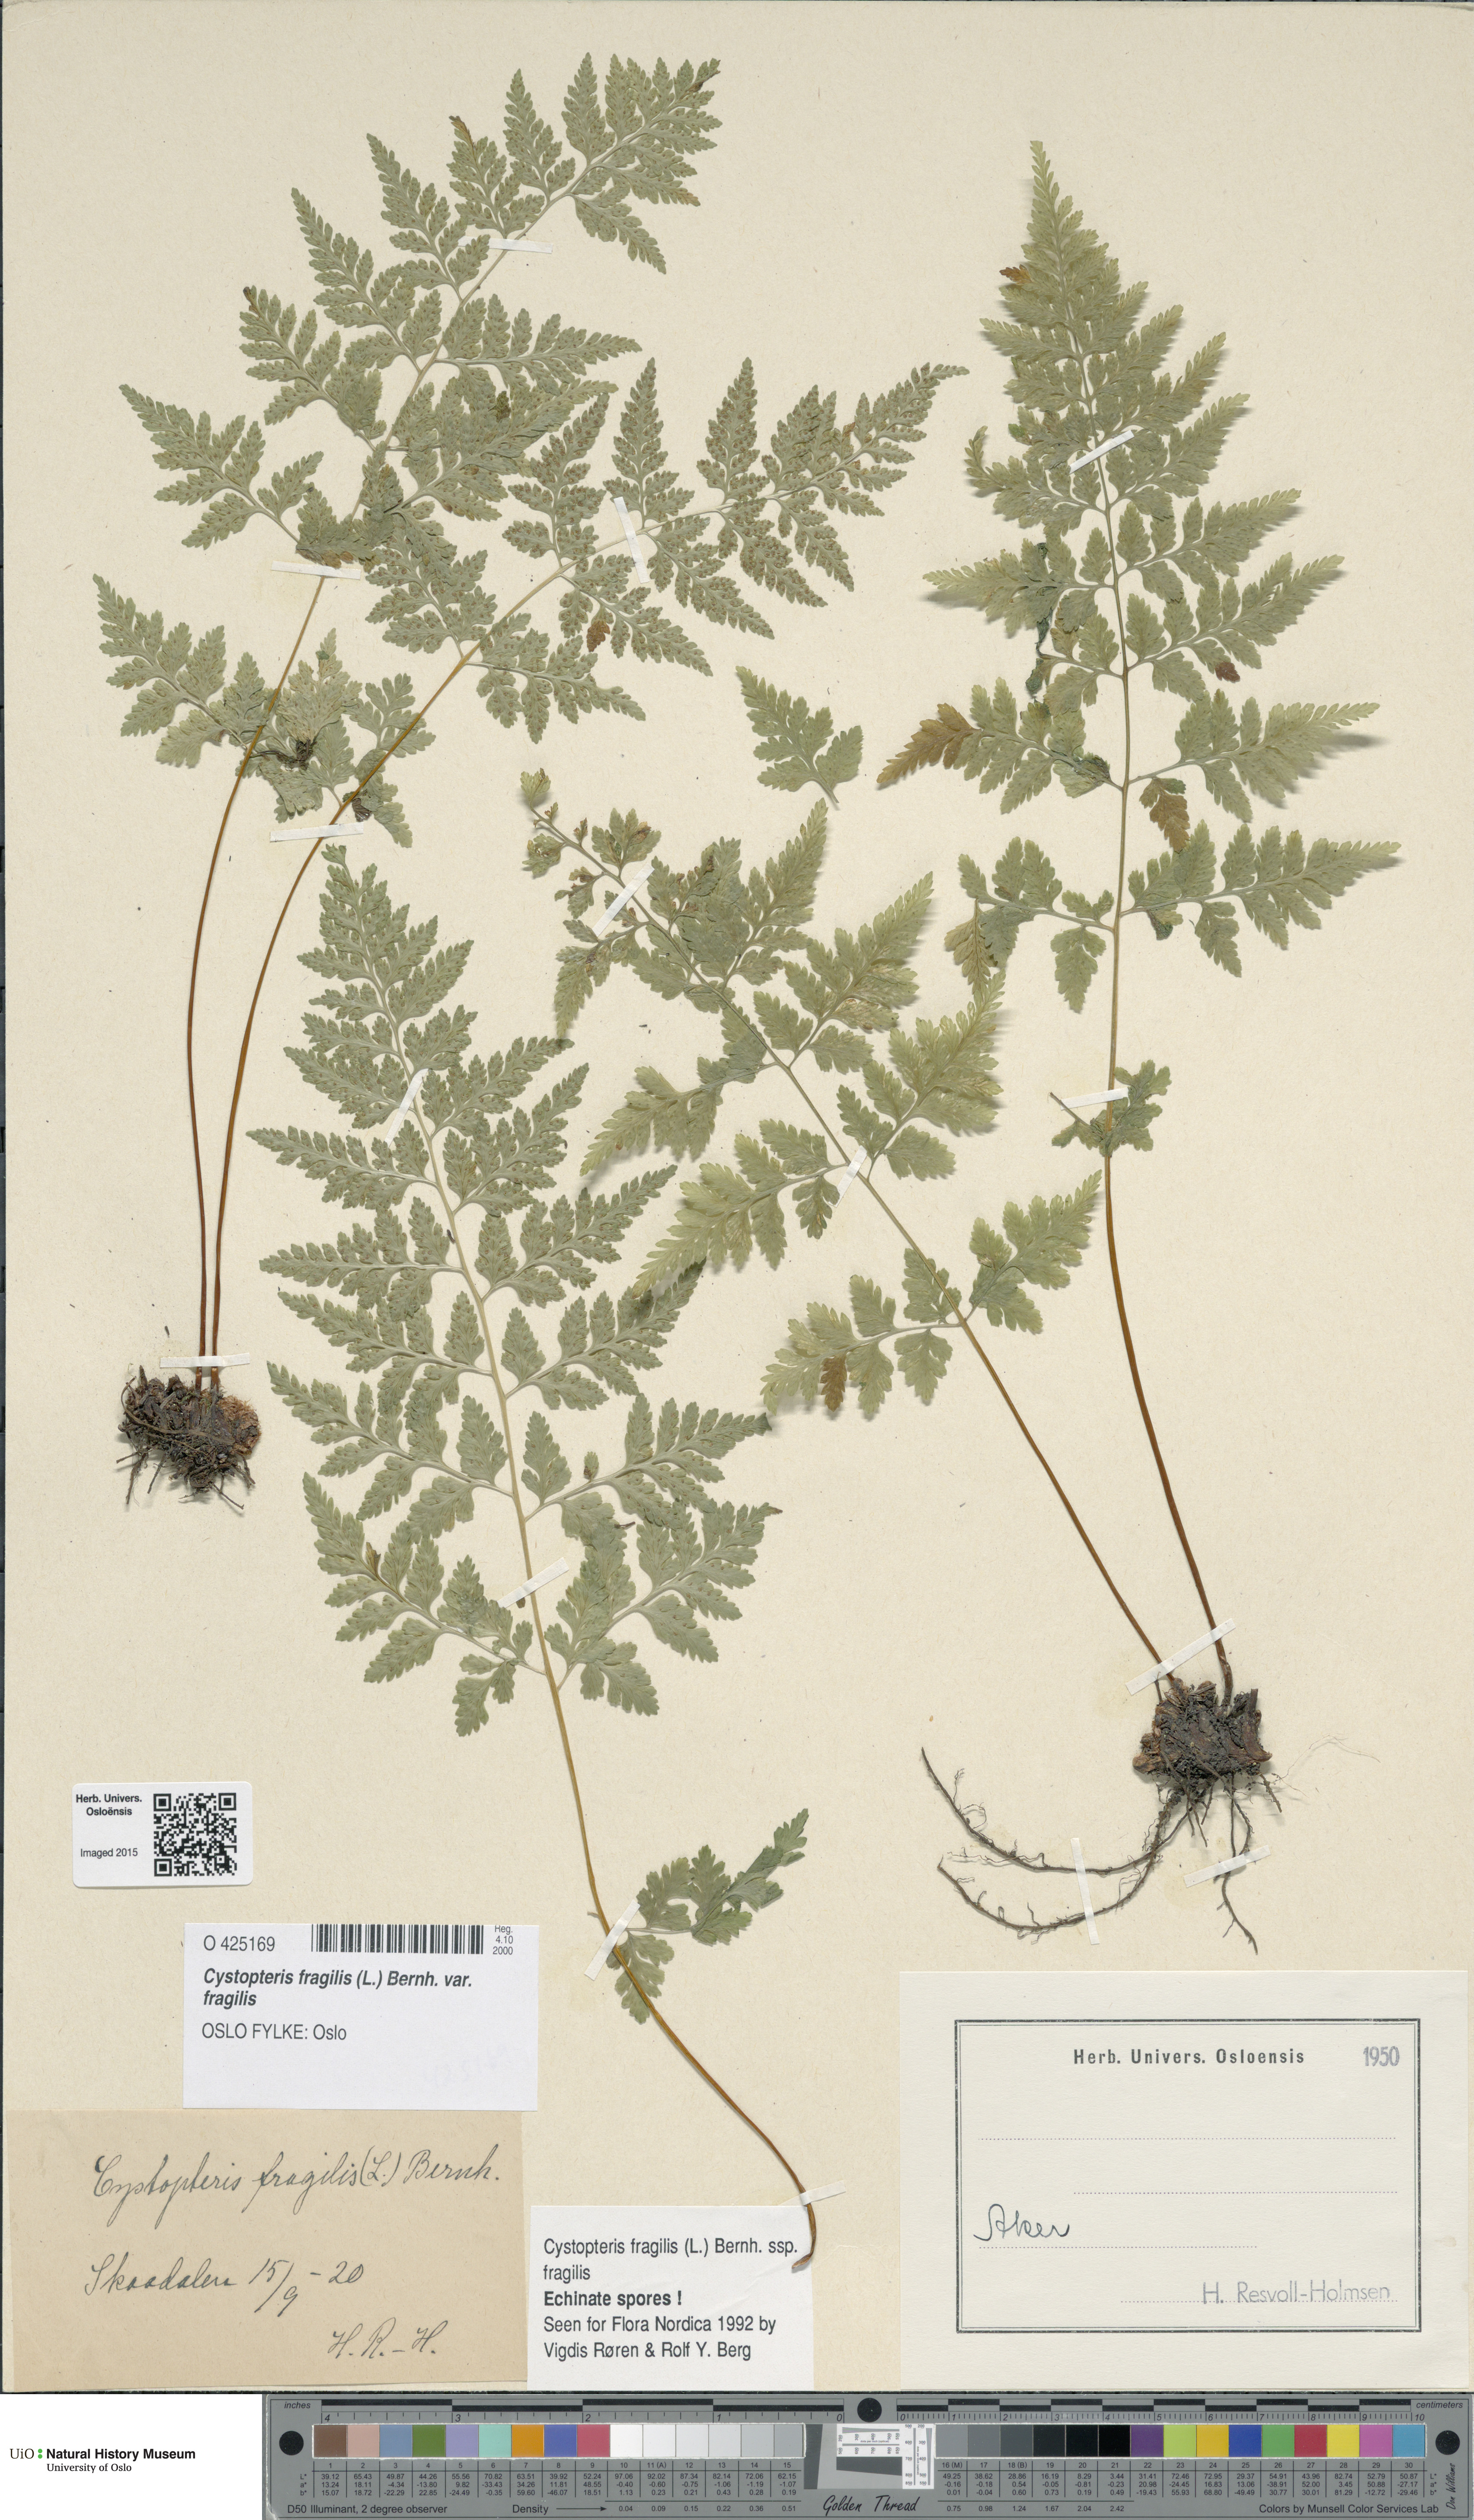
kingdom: Plantae
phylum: Tracheophyta
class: Polypodiopsida
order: Polypodiales
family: Cystopteridaceae
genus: Cystopteris
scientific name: Cystopteris fragilis
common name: Brittle bladder fern
